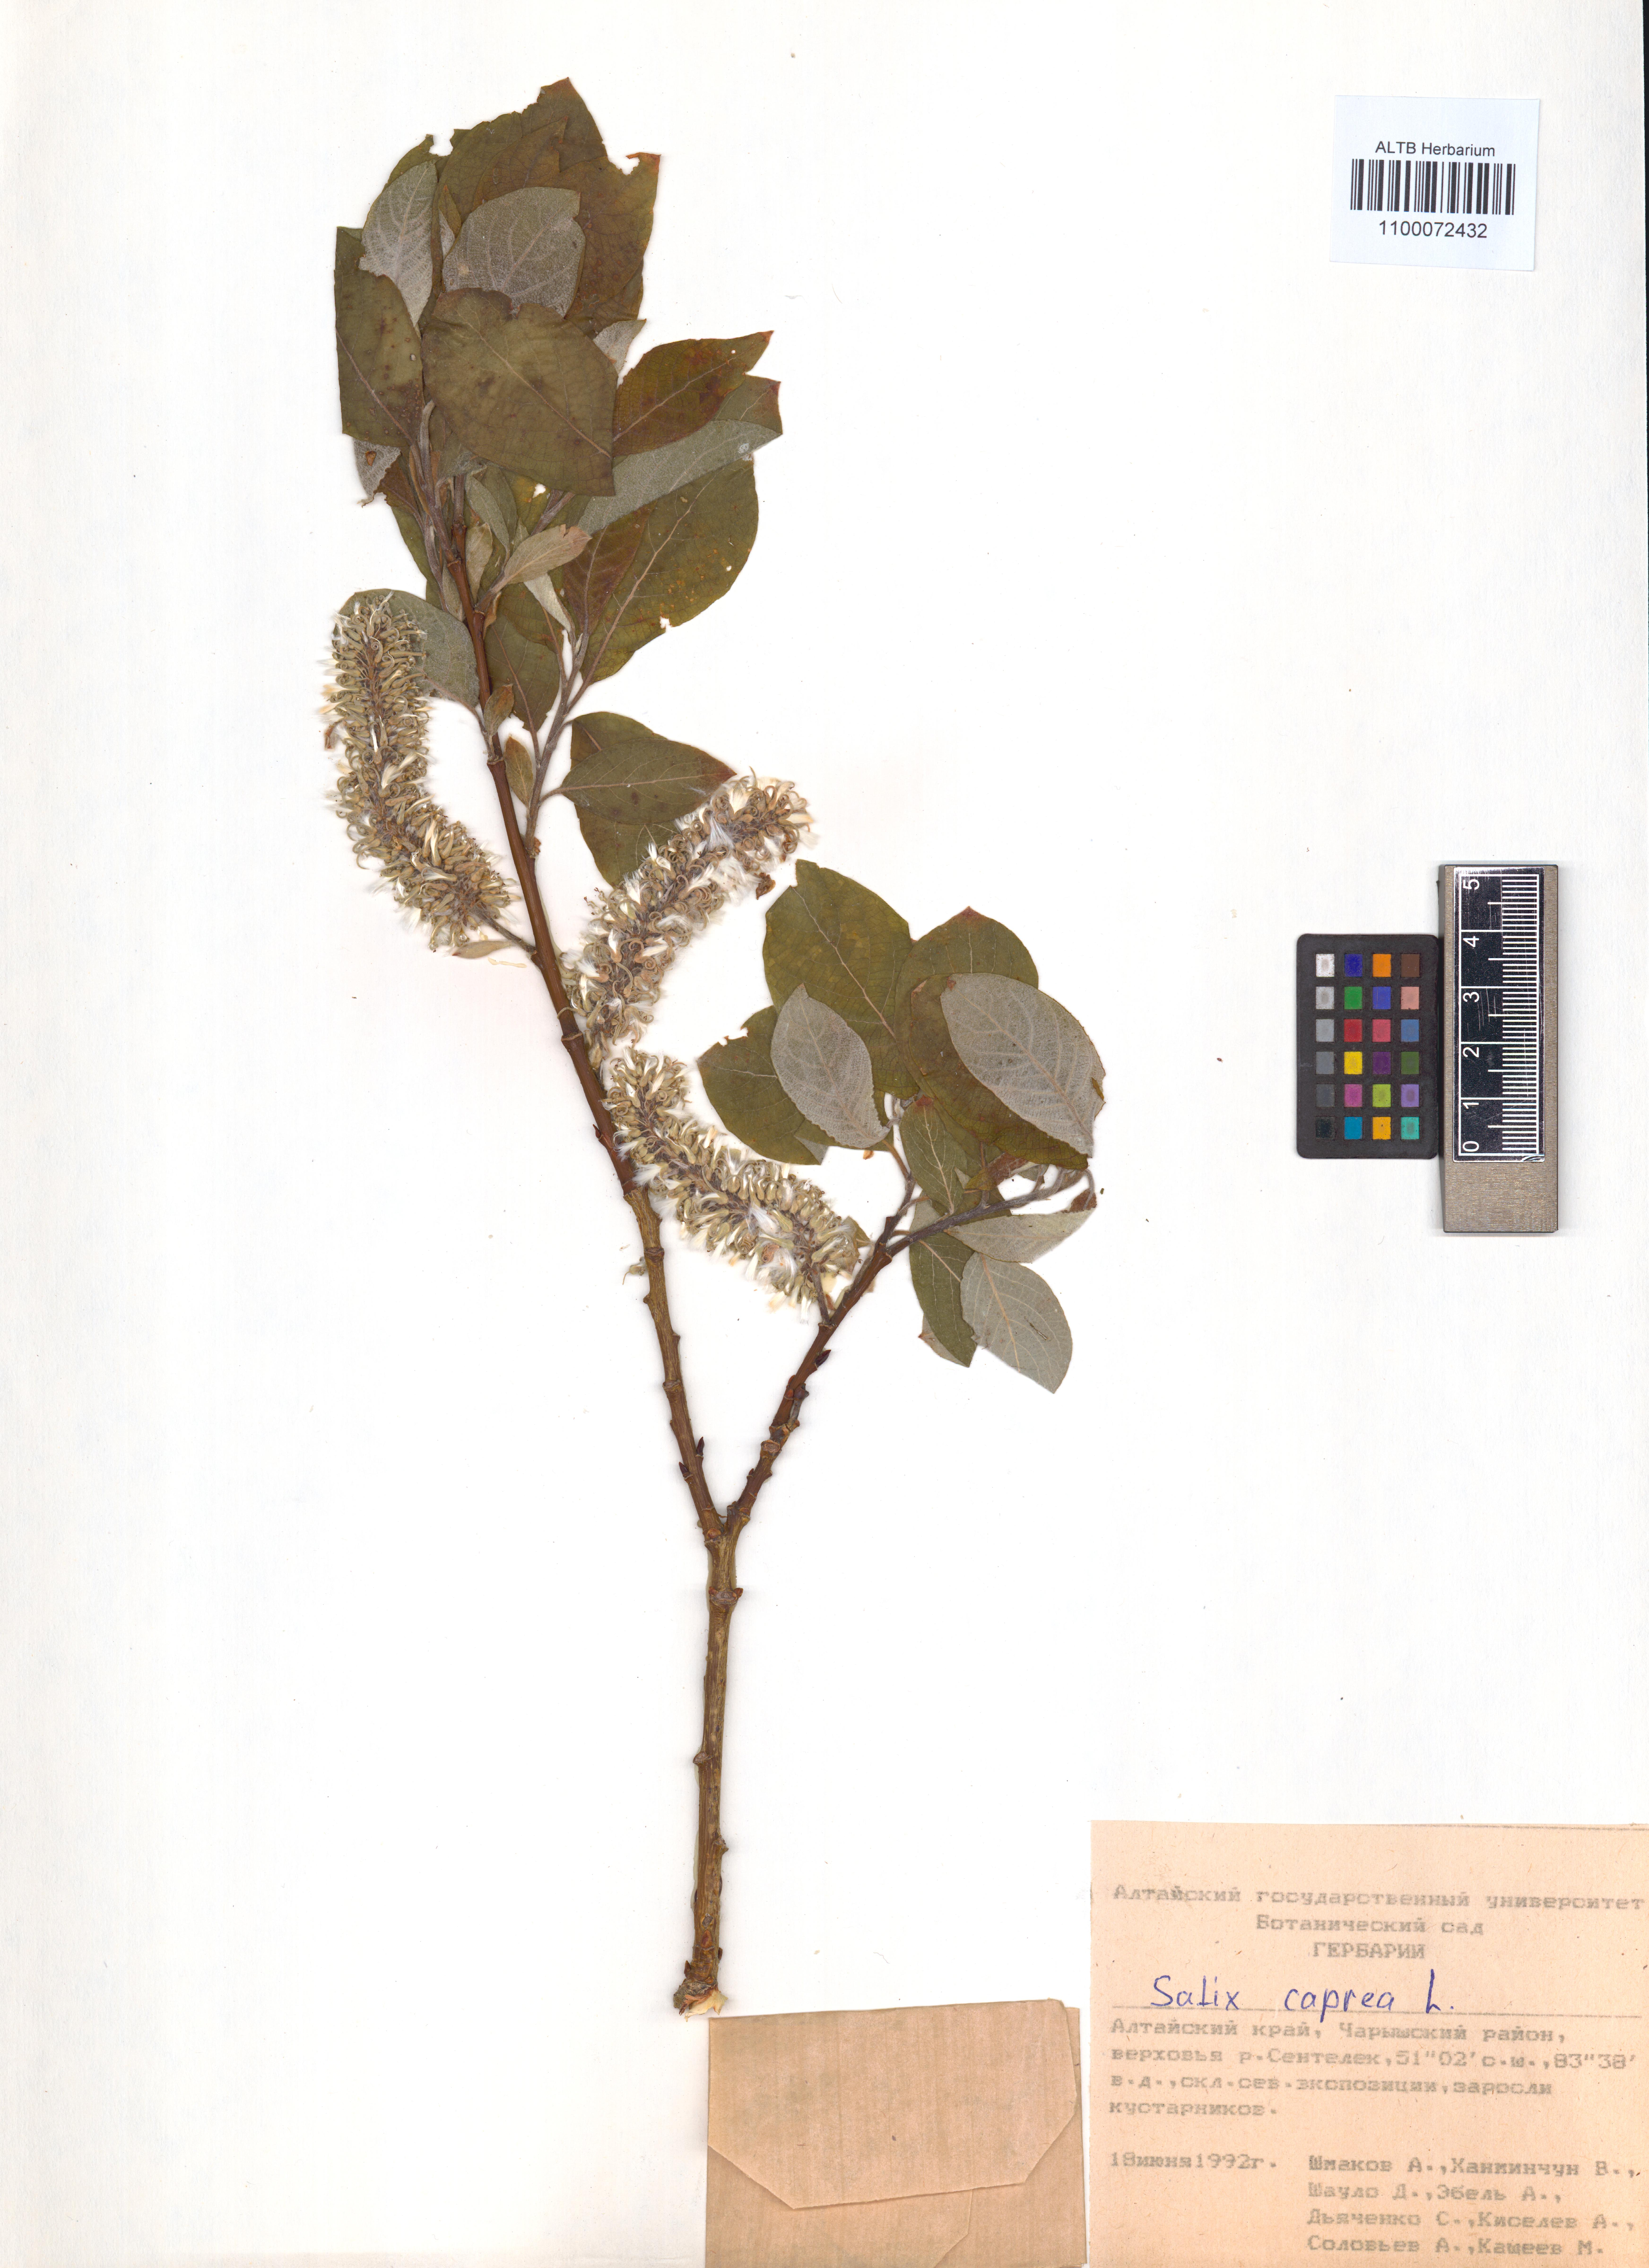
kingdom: Plantae
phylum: Tracheophyta
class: Magnoliopsida
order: Malpighiales
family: Salicaceae
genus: Salix
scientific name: Salix caprea
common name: Goat willow
